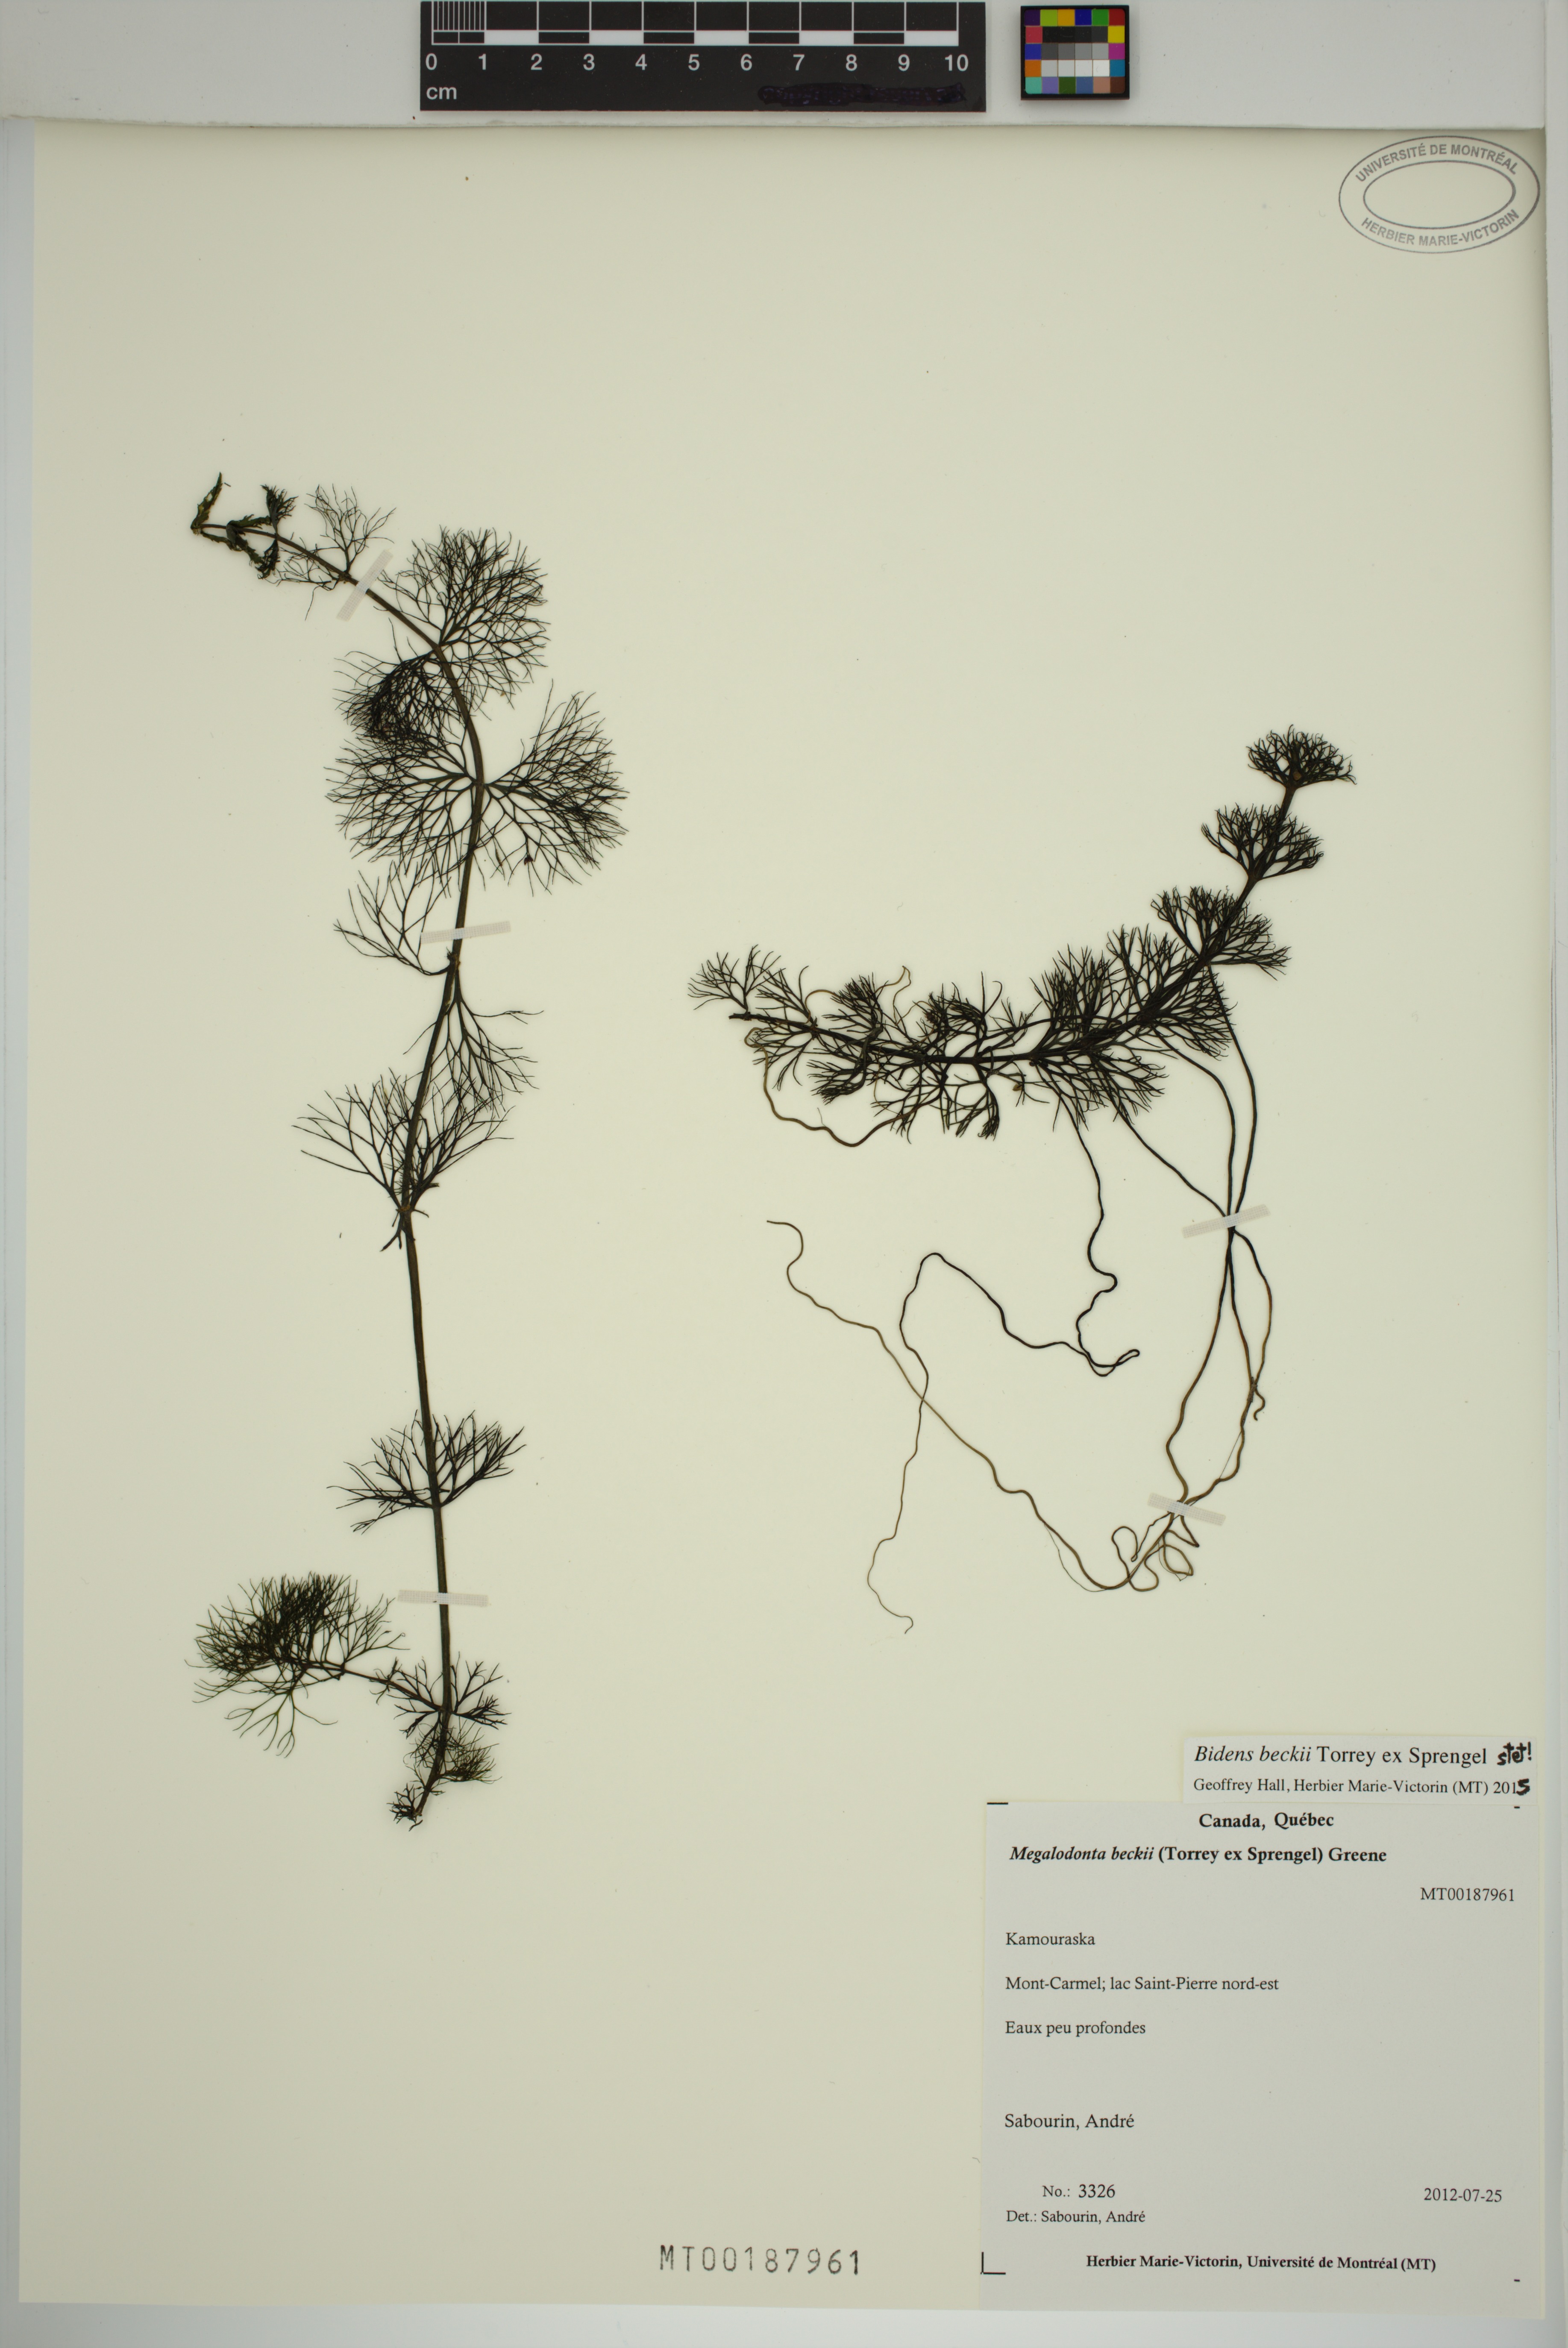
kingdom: Plantae
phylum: Tracheophyta
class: Magnoliopsida
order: Asterales
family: Asteraceae
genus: Bidens
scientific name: Bidens beckii
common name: Beck's beggarticks
